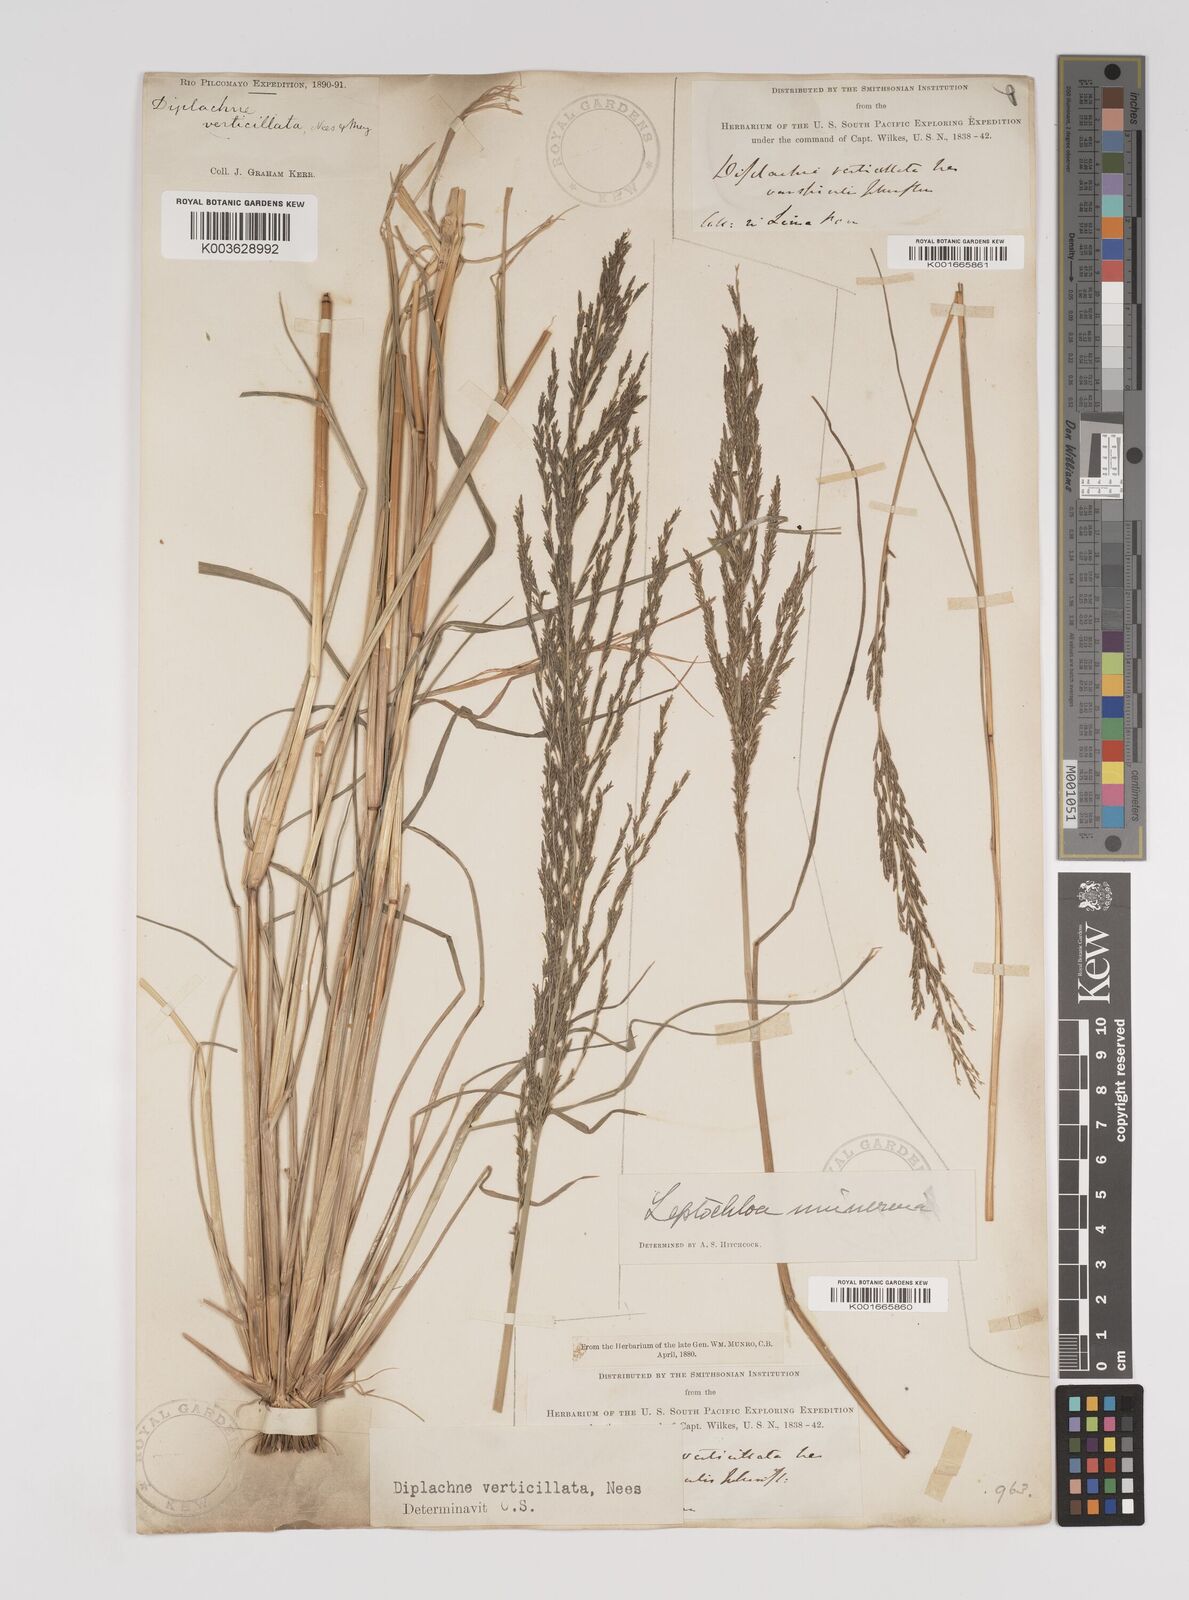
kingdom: Plantae
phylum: Tracheophyta
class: Liliopsida
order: Poales
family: Poaceae
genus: Diplachne
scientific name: Diplachne fusca
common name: Brown beetle grass
